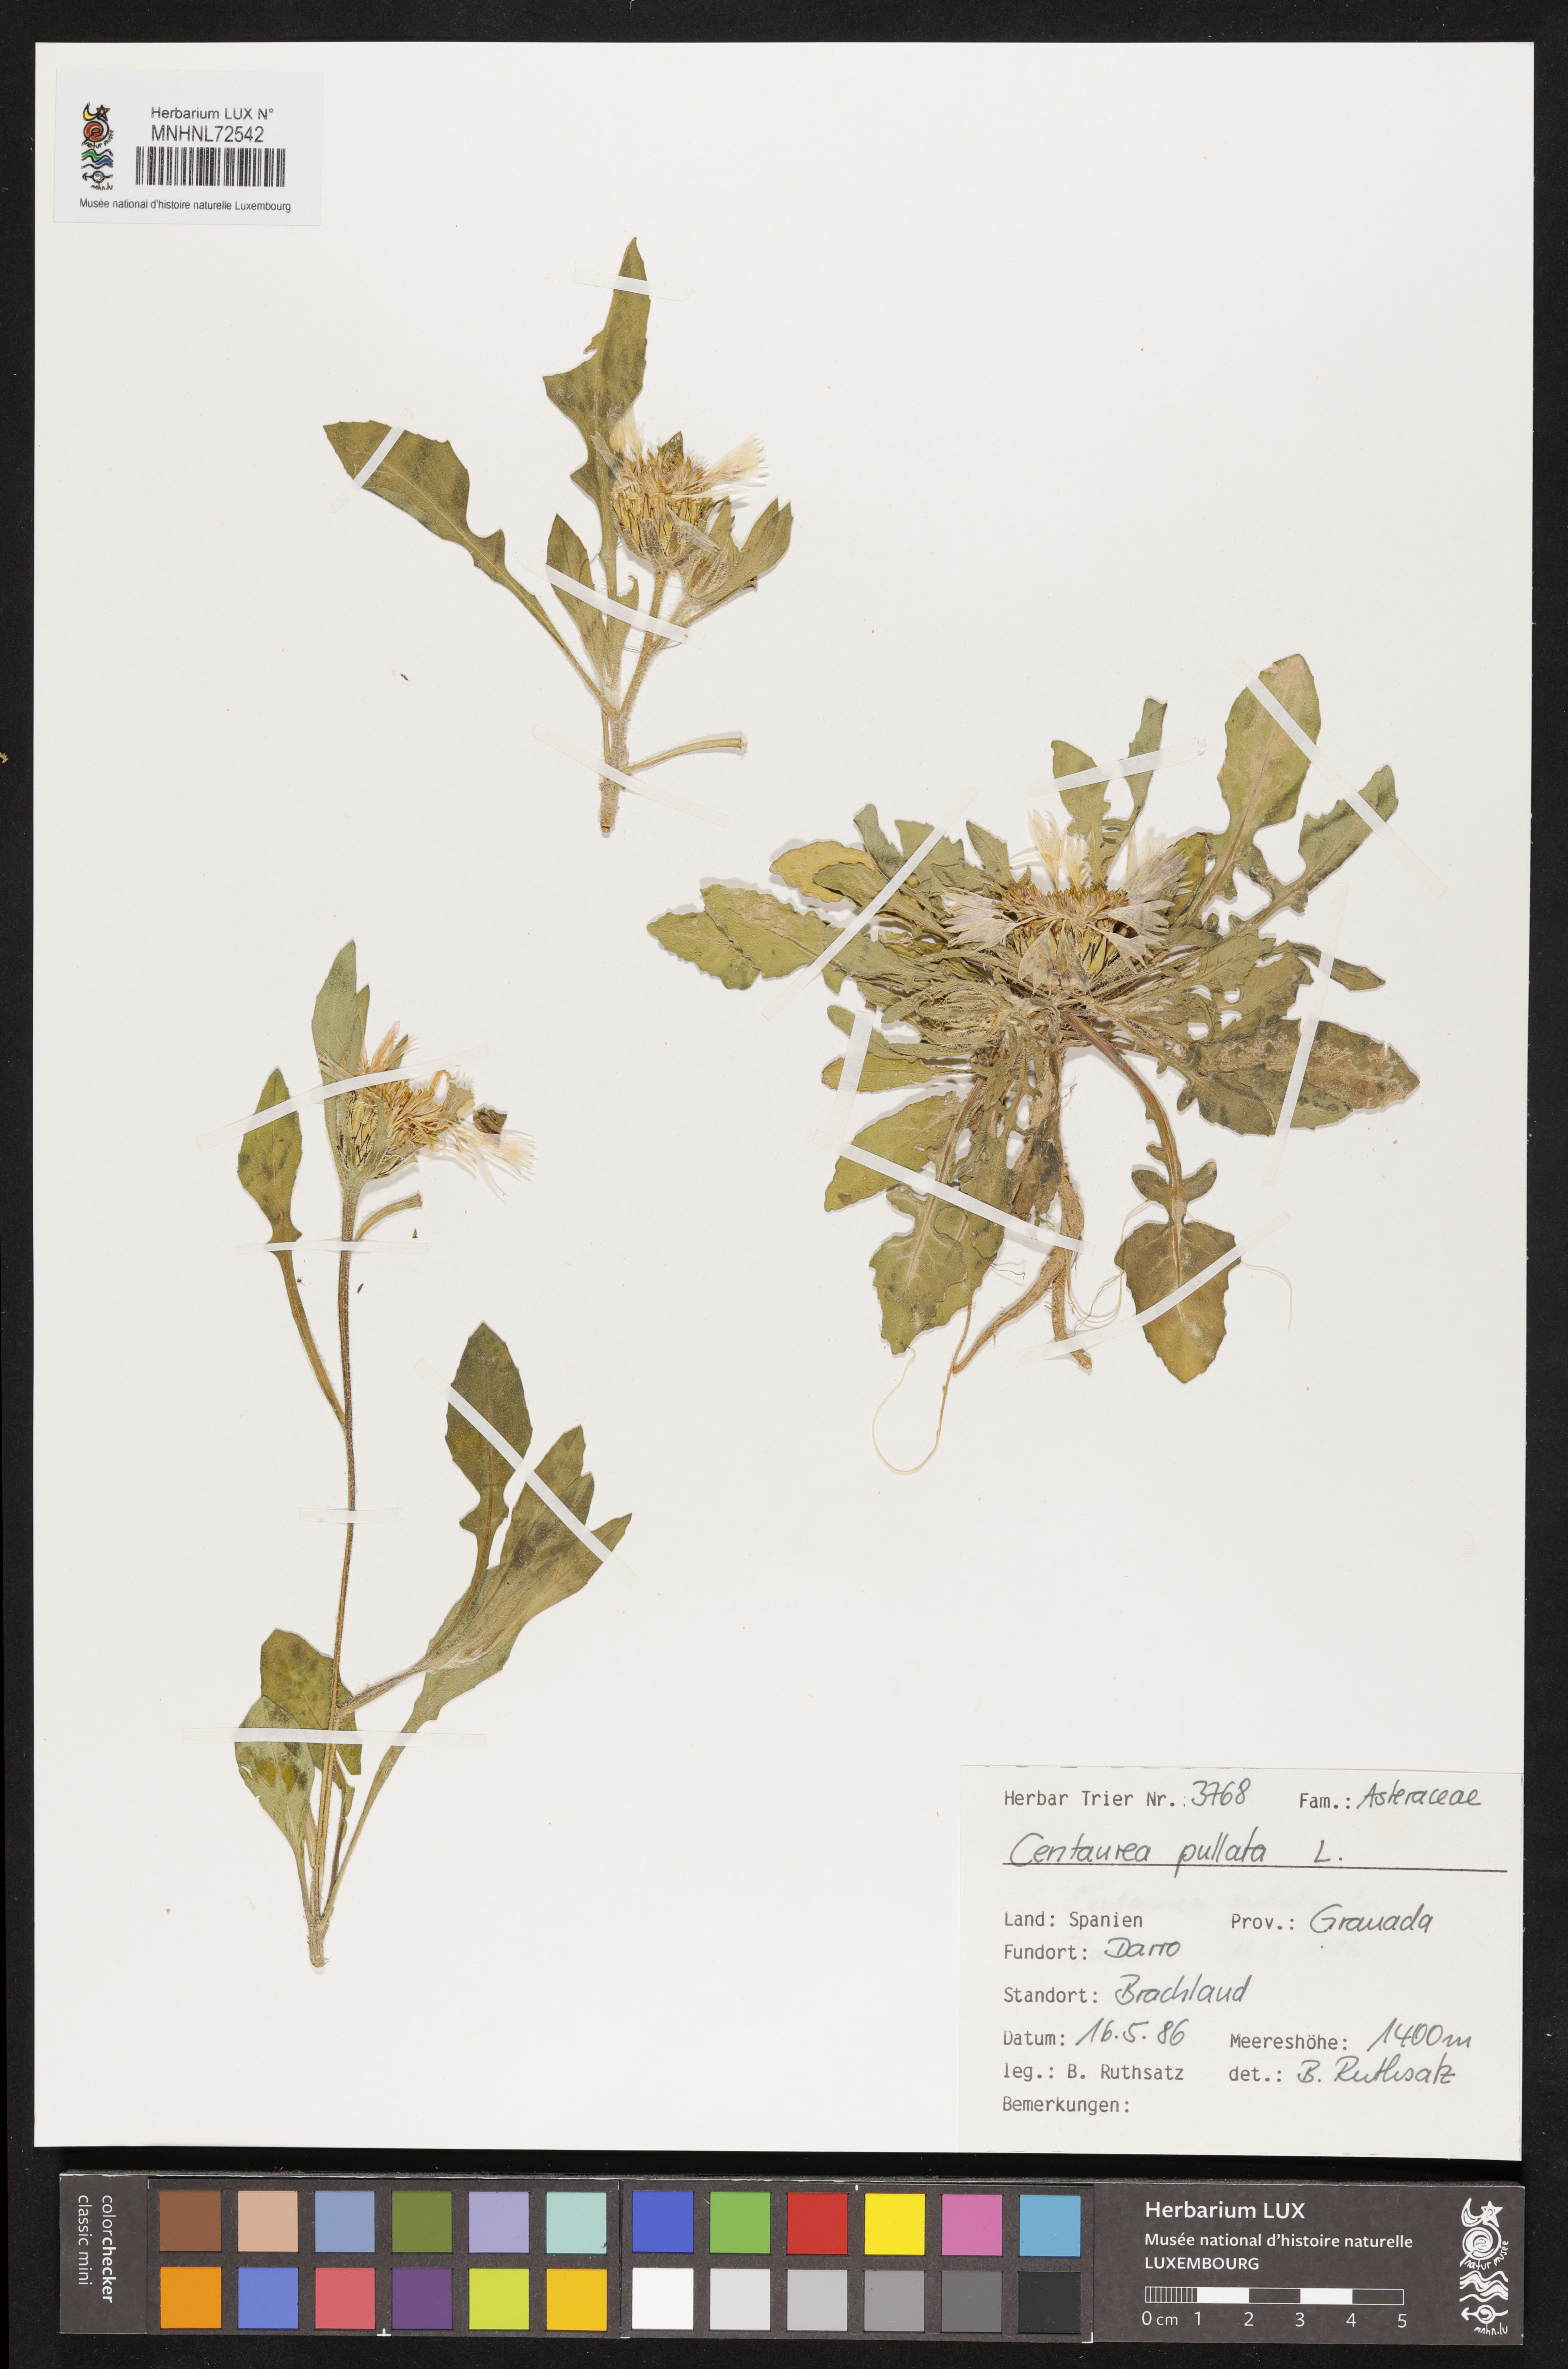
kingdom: Plantae
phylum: Tracheophyta
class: Magnoliopsida
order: Asterales
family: Asteraceae
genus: Centaurea
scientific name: Centaurea pullata
